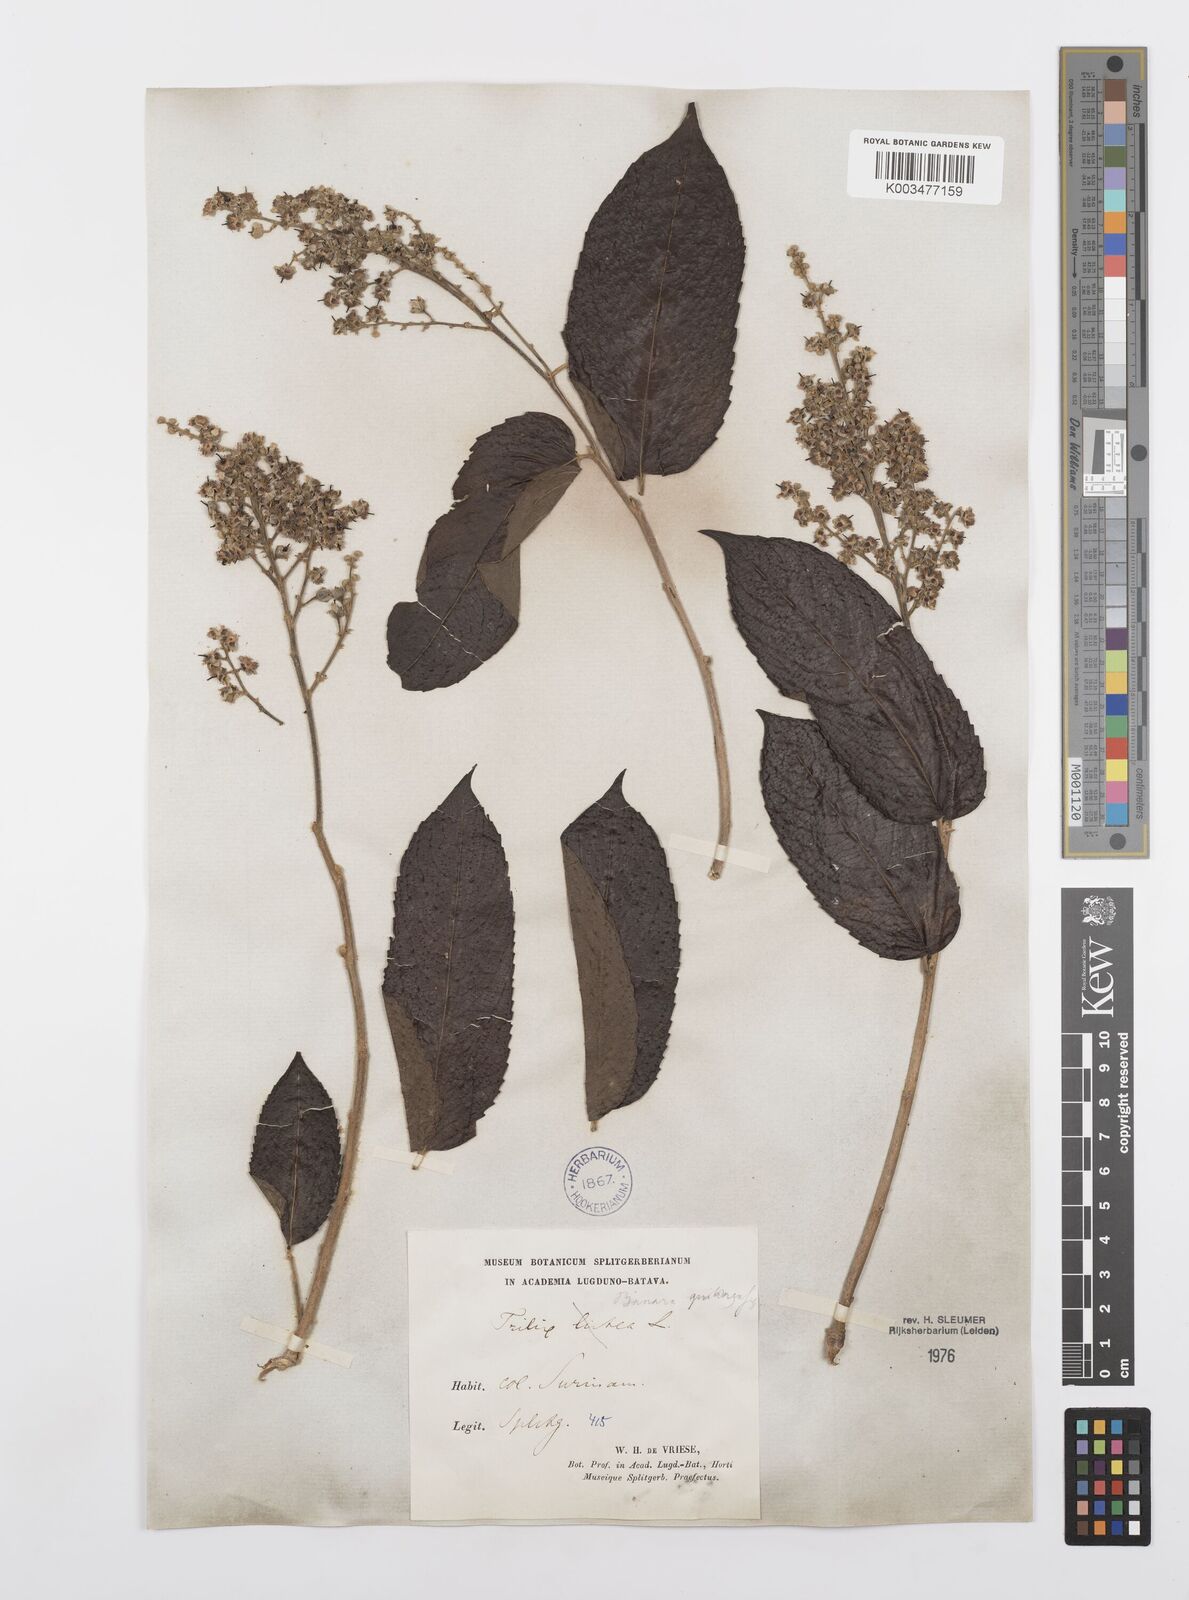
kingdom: Plantae
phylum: Tracheophyta
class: Magnoliopsida
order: Malpighiales
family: Salicaceae
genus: Banara
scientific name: Banara guianensis
